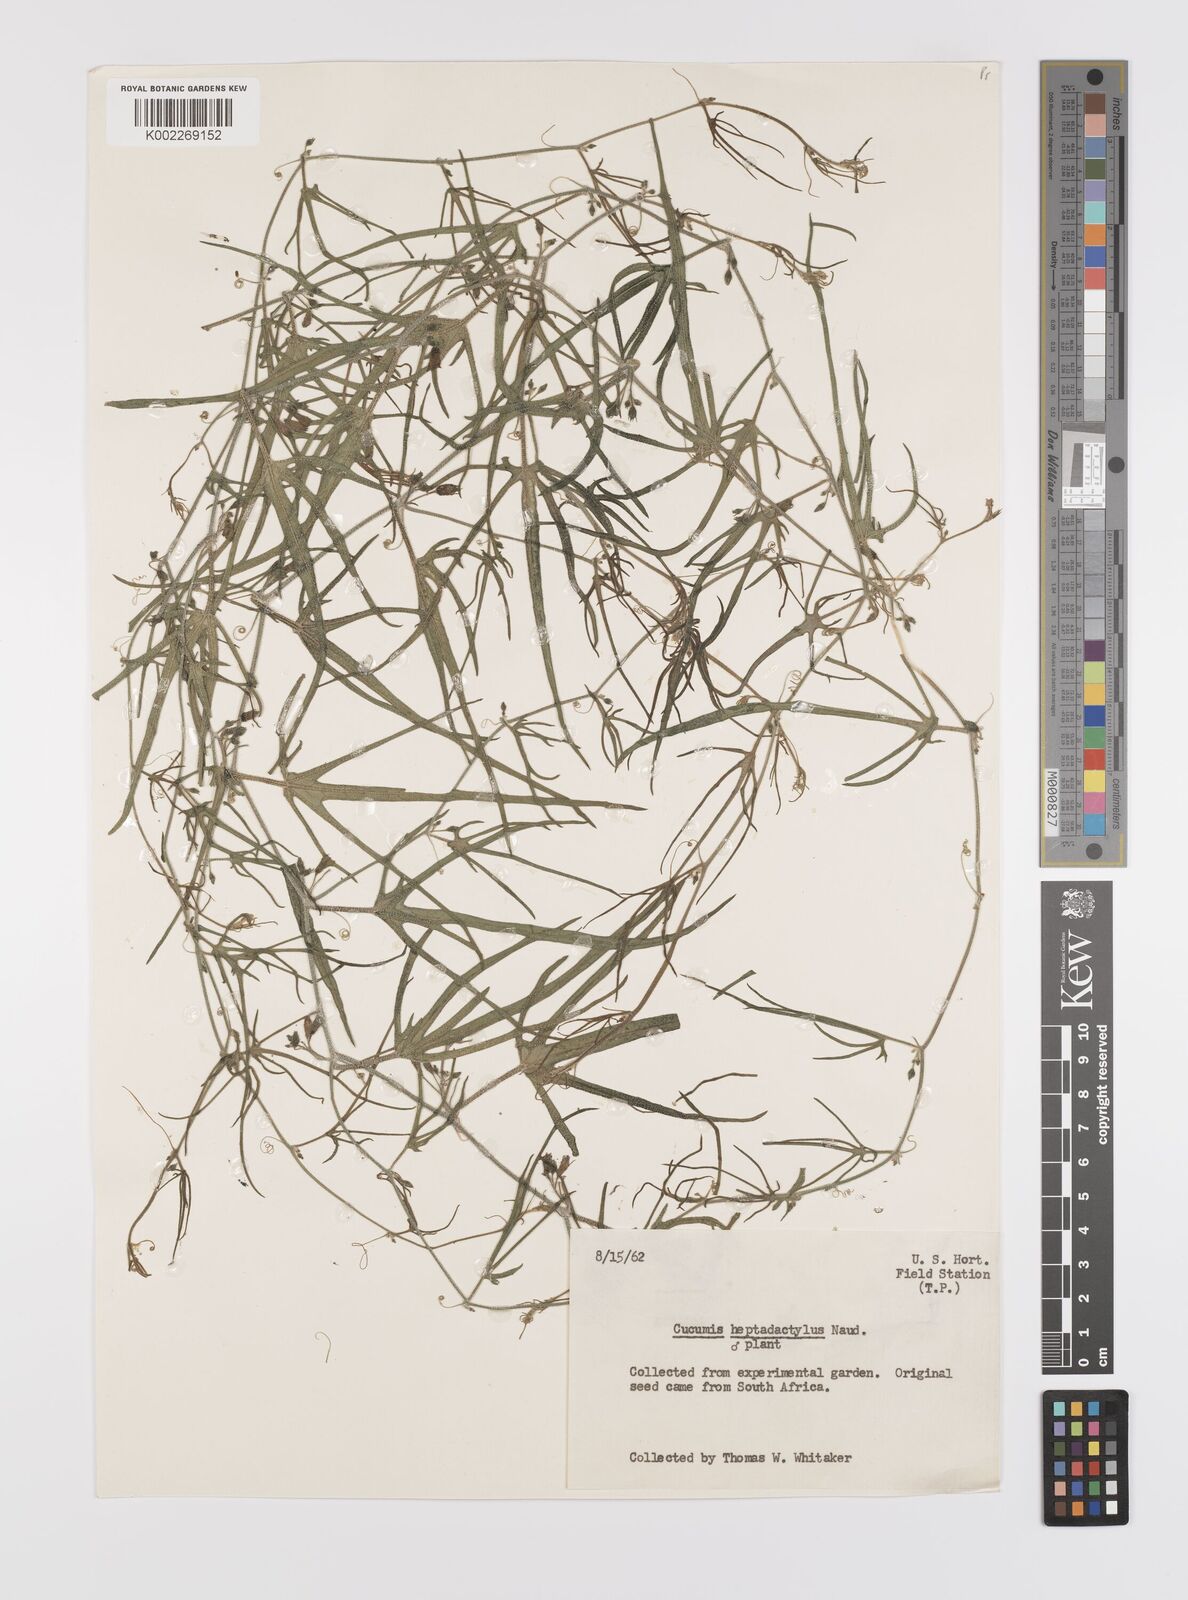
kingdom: Plantae
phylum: Tracheophyta
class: Magnoliopsida
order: Cucurbitales
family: Cucurbitaceae
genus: Cucumis
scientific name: Cucumis heptadactylus
